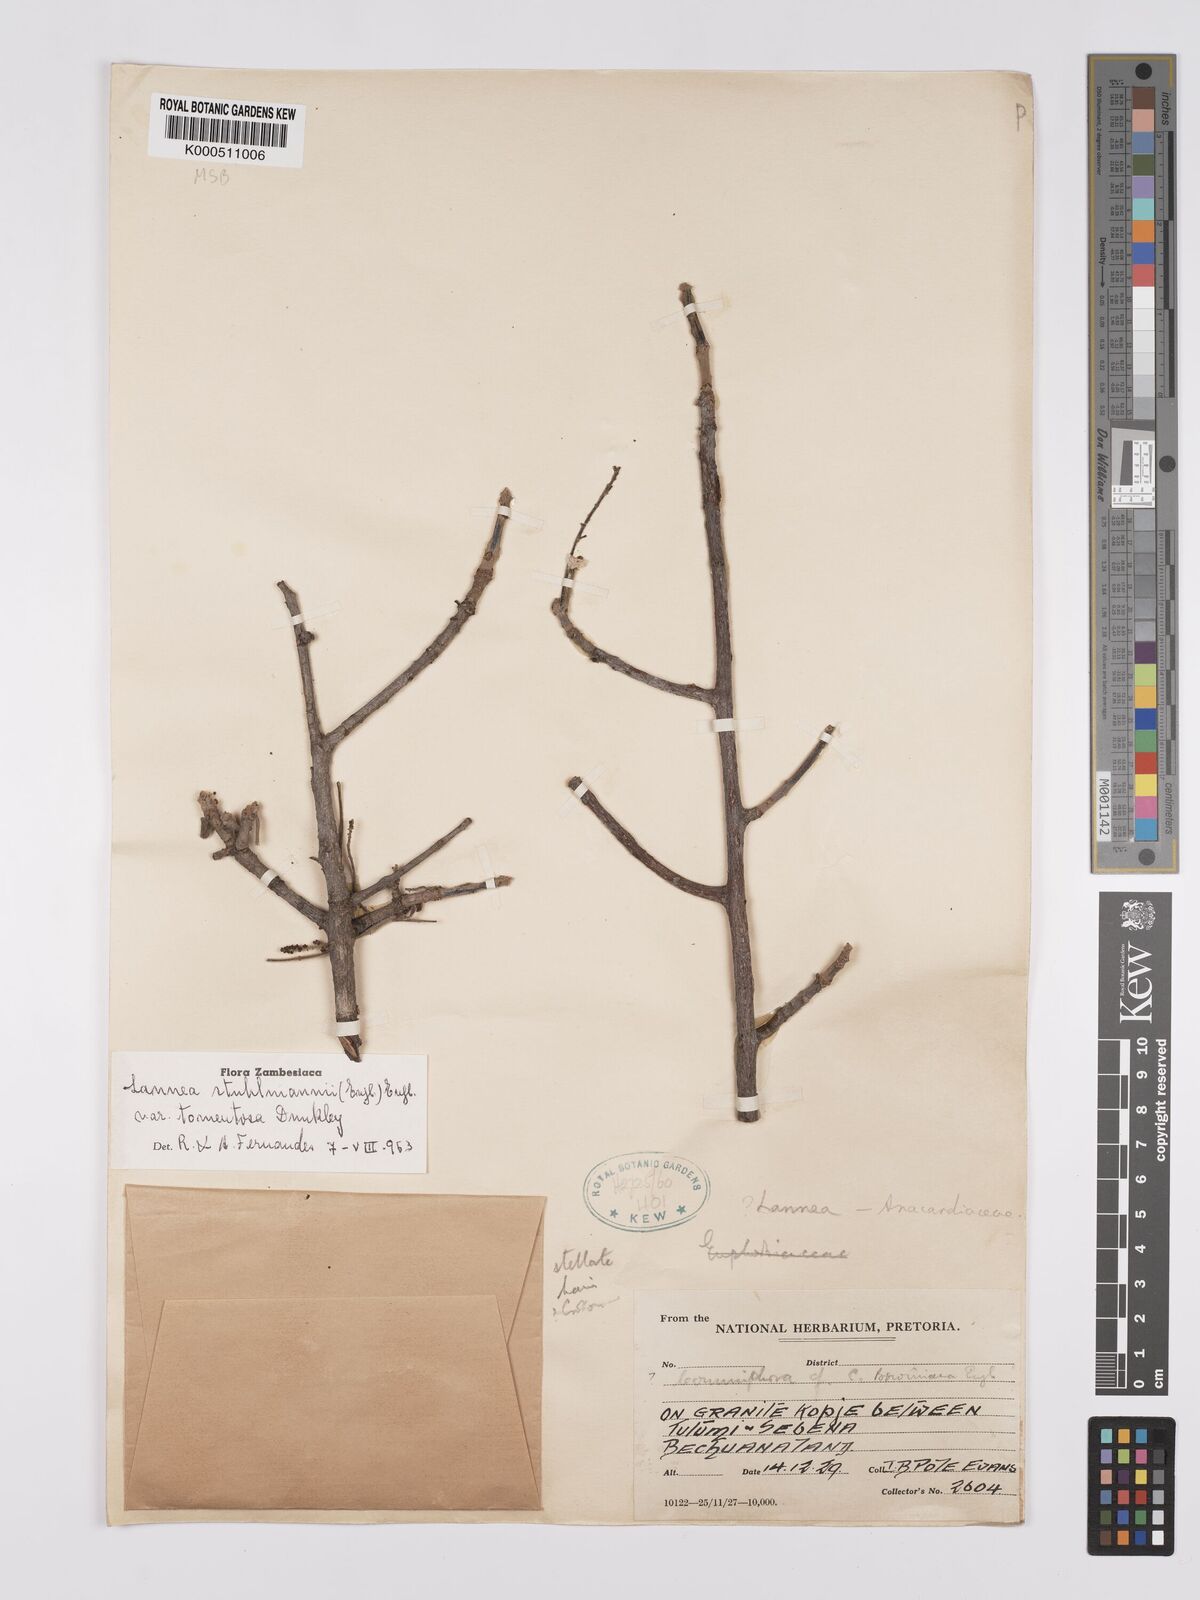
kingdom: Plantae
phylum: Tracheophyta
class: Magnoliopsida
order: Sapindales
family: Anacardiaceae
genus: Lannea
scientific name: Lannea schweinfurthii
